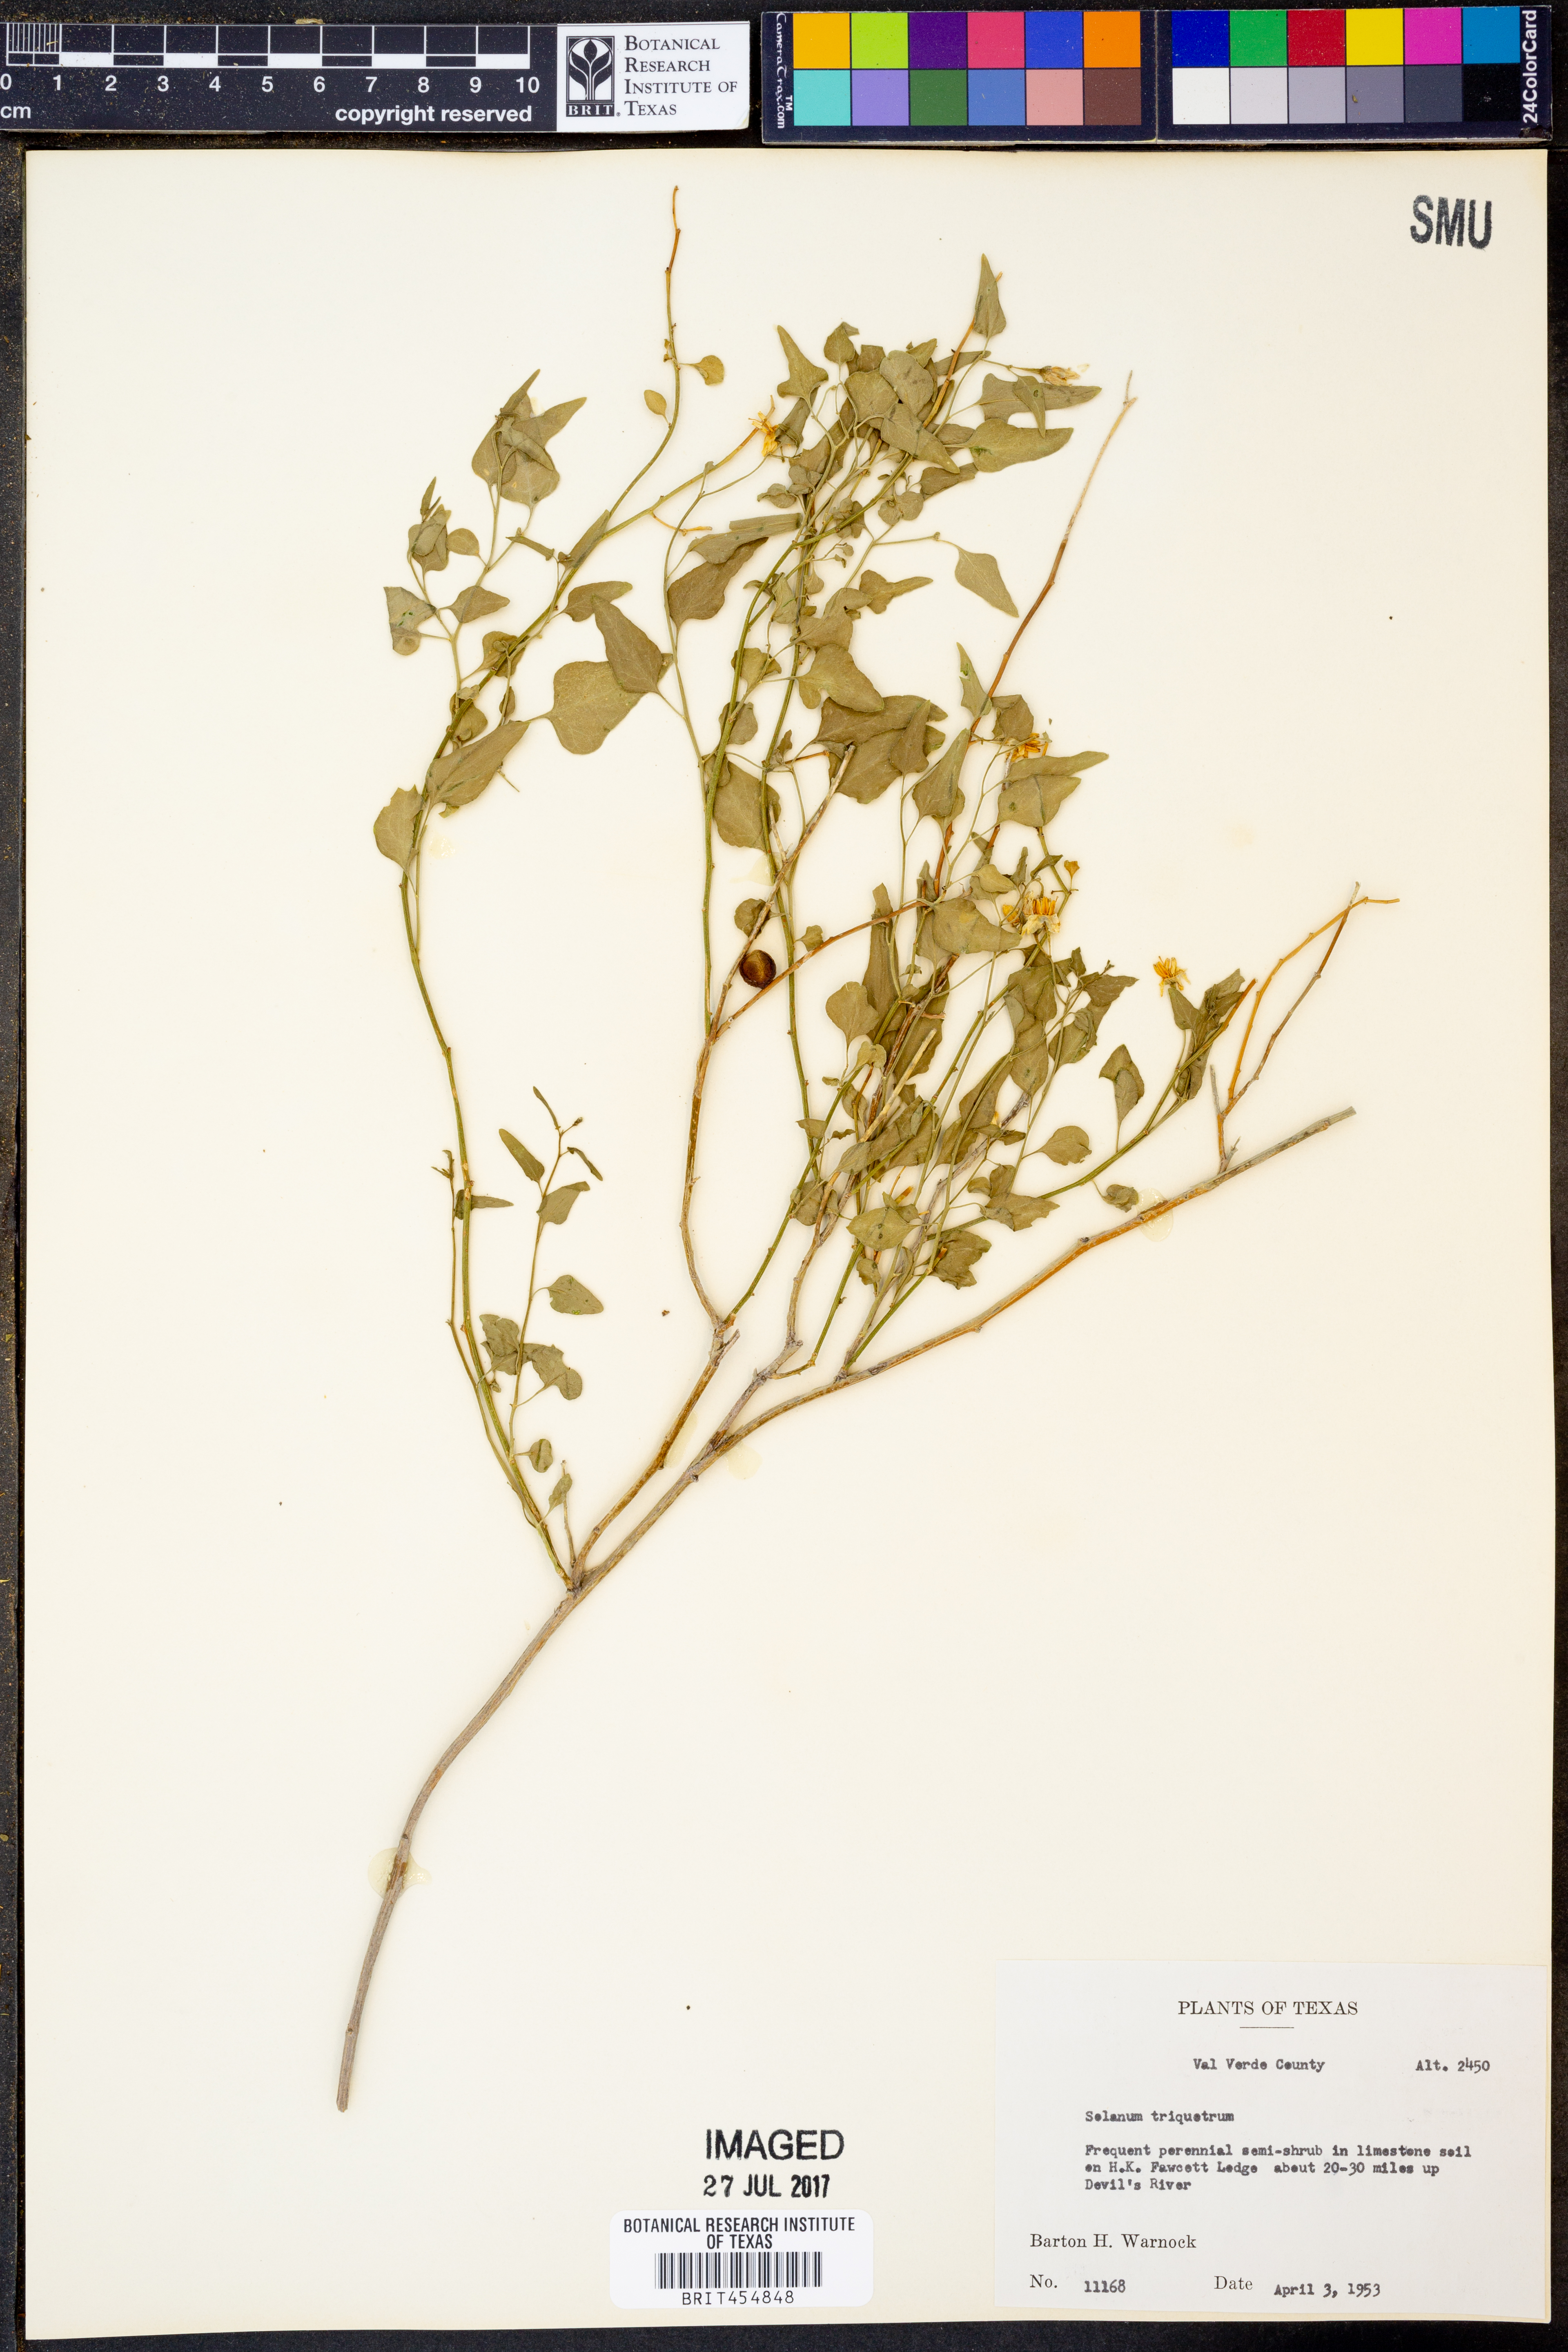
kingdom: Plantae
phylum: Tracheophyta
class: Magnoliopsida
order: Solanales
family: Solanaceae
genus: Solanum
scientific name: Solanum triquetrum
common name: Texas nightshade
